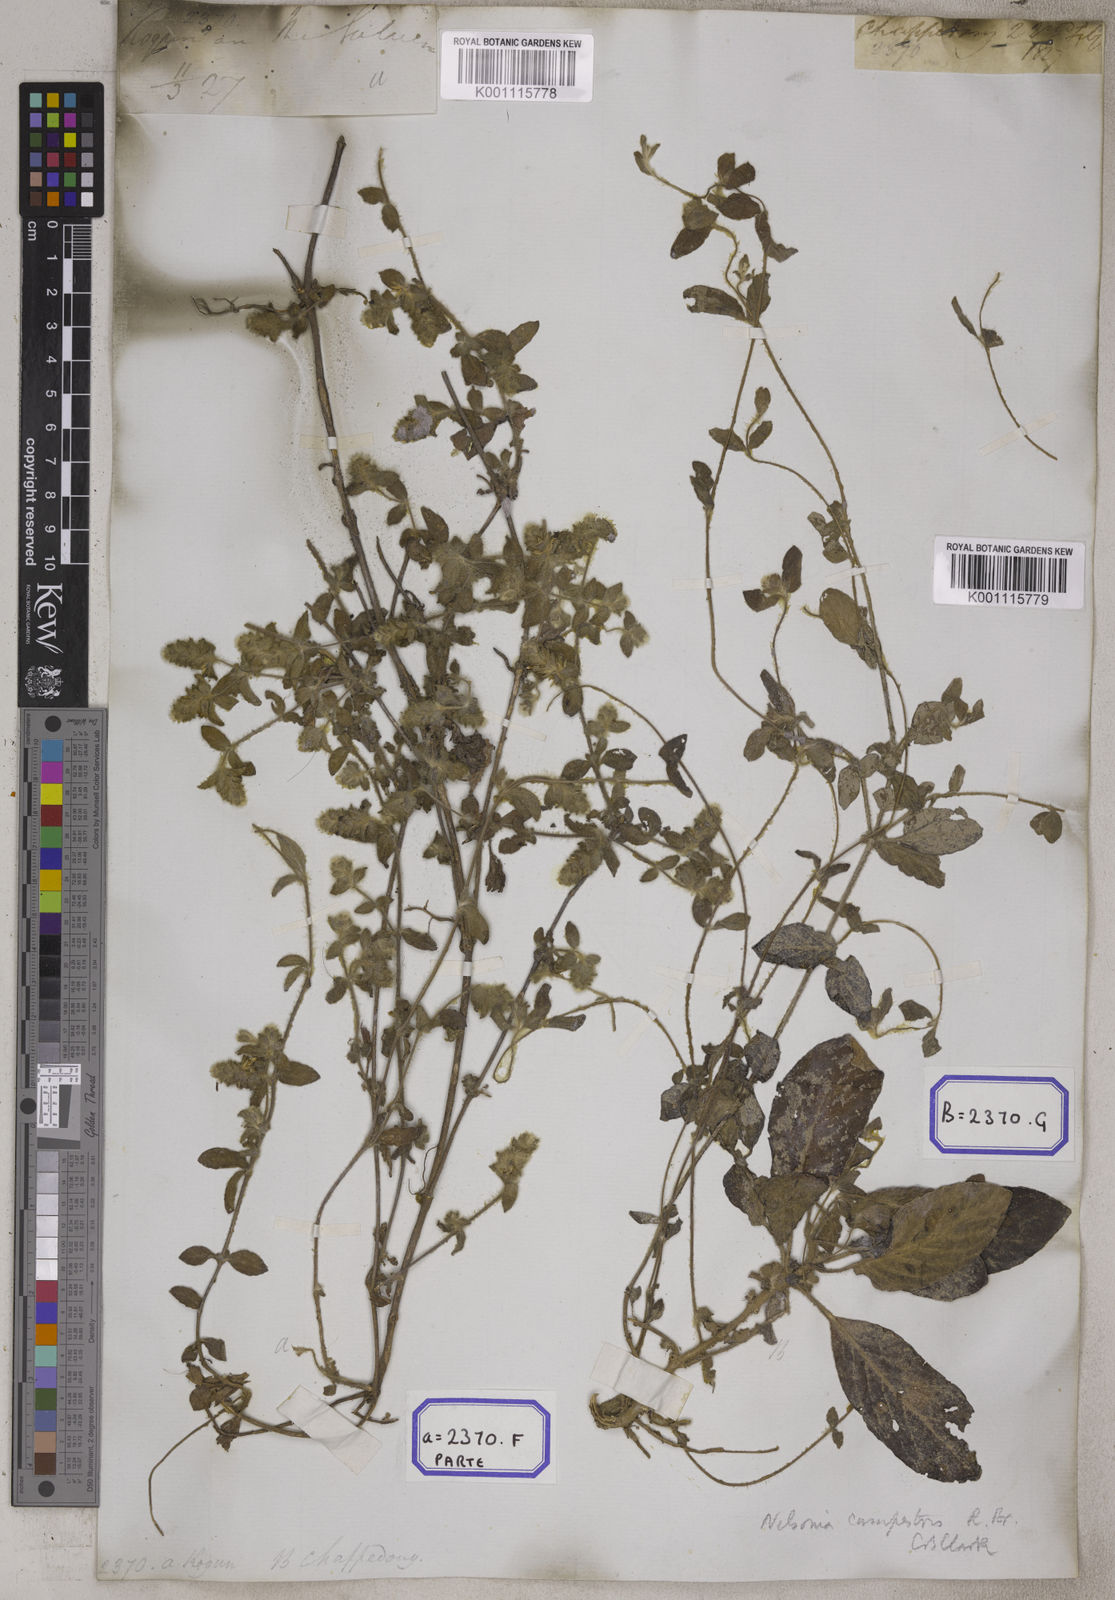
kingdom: Plantae
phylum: Tracheophyta
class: Magnoliopsida
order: Lamiales
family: Acanthaceae
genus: Nelsonia
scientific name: Nelsonia canescens
